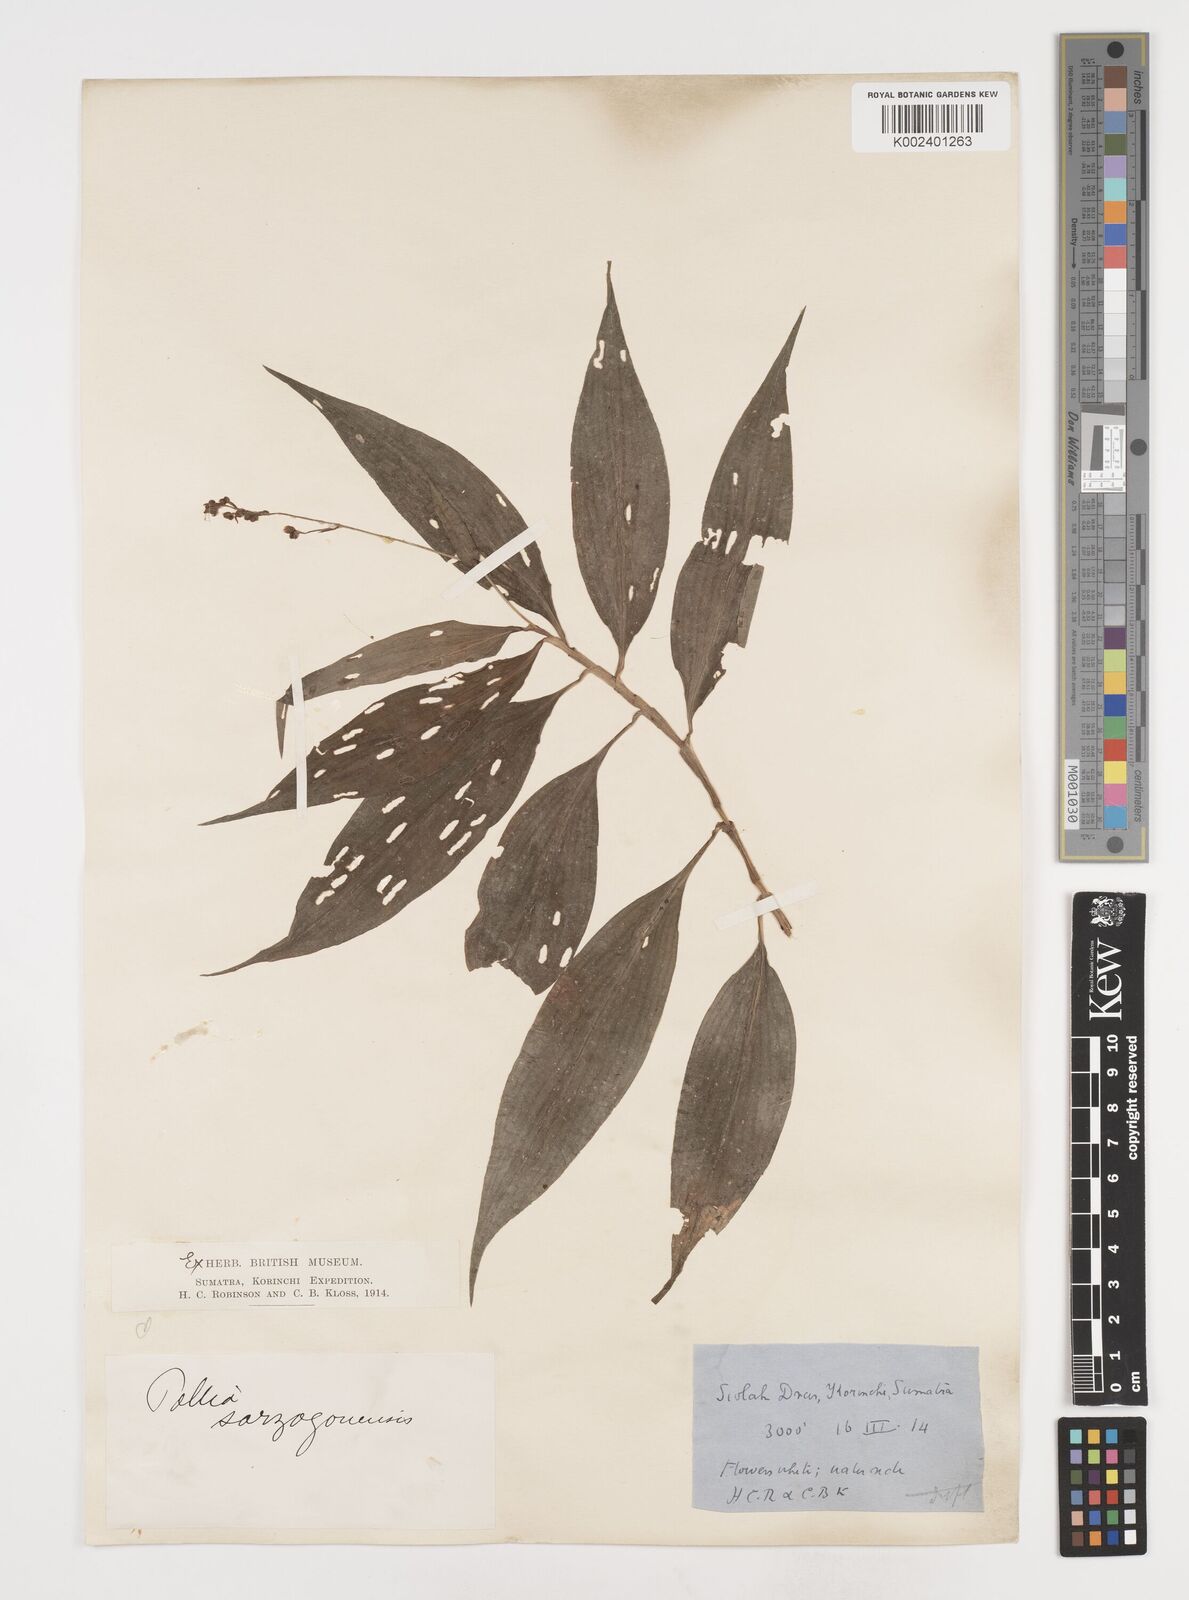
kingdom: Plantae
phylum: Tracheophyta
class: Liliopsida
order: Commelinales
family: Commelinaceae
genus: Pollia
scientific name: Pollia secundiflora
